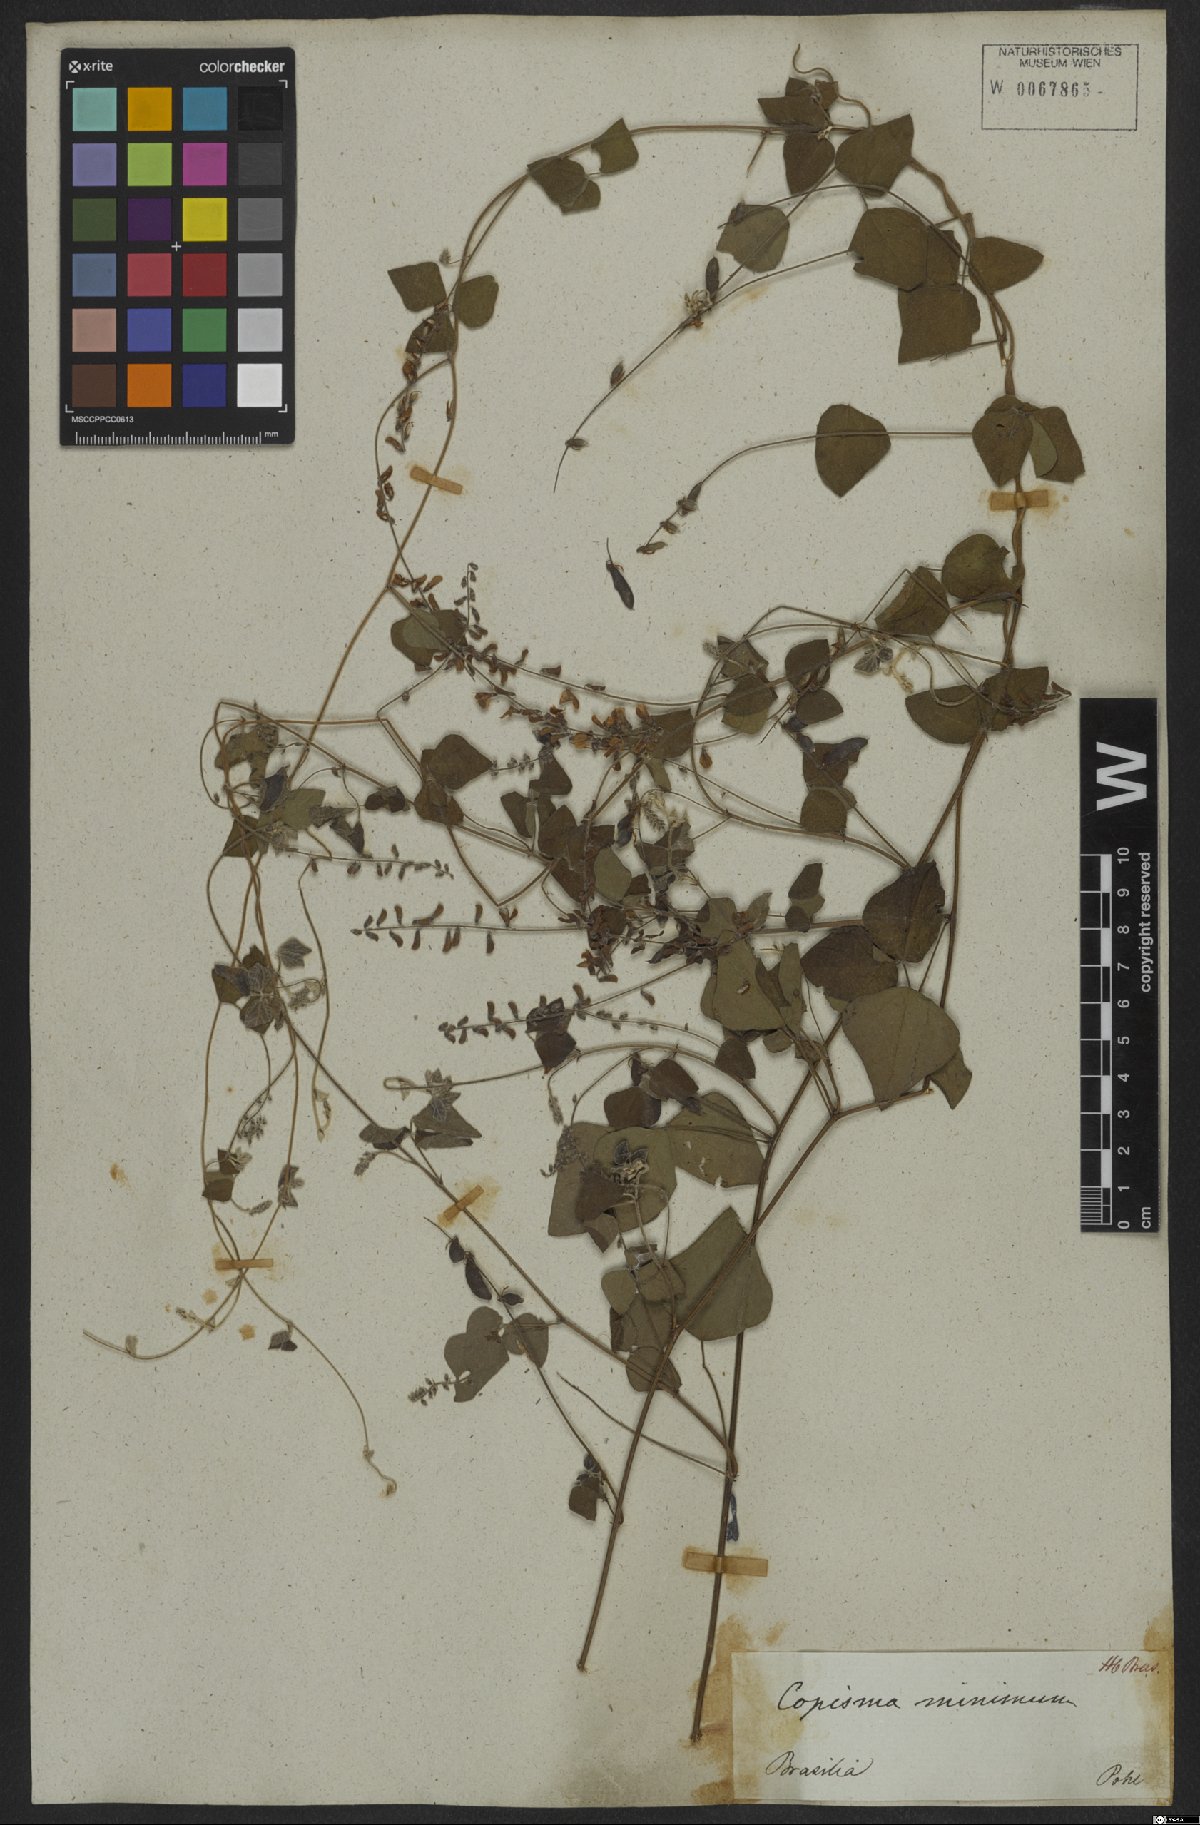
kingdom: Plantae
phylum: Tracheophyta
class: Magnoliopsida
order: Fabales
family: Fabaceae
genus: Rhynchosia
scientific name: Rhynchosia minima
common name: Least snoutbean
